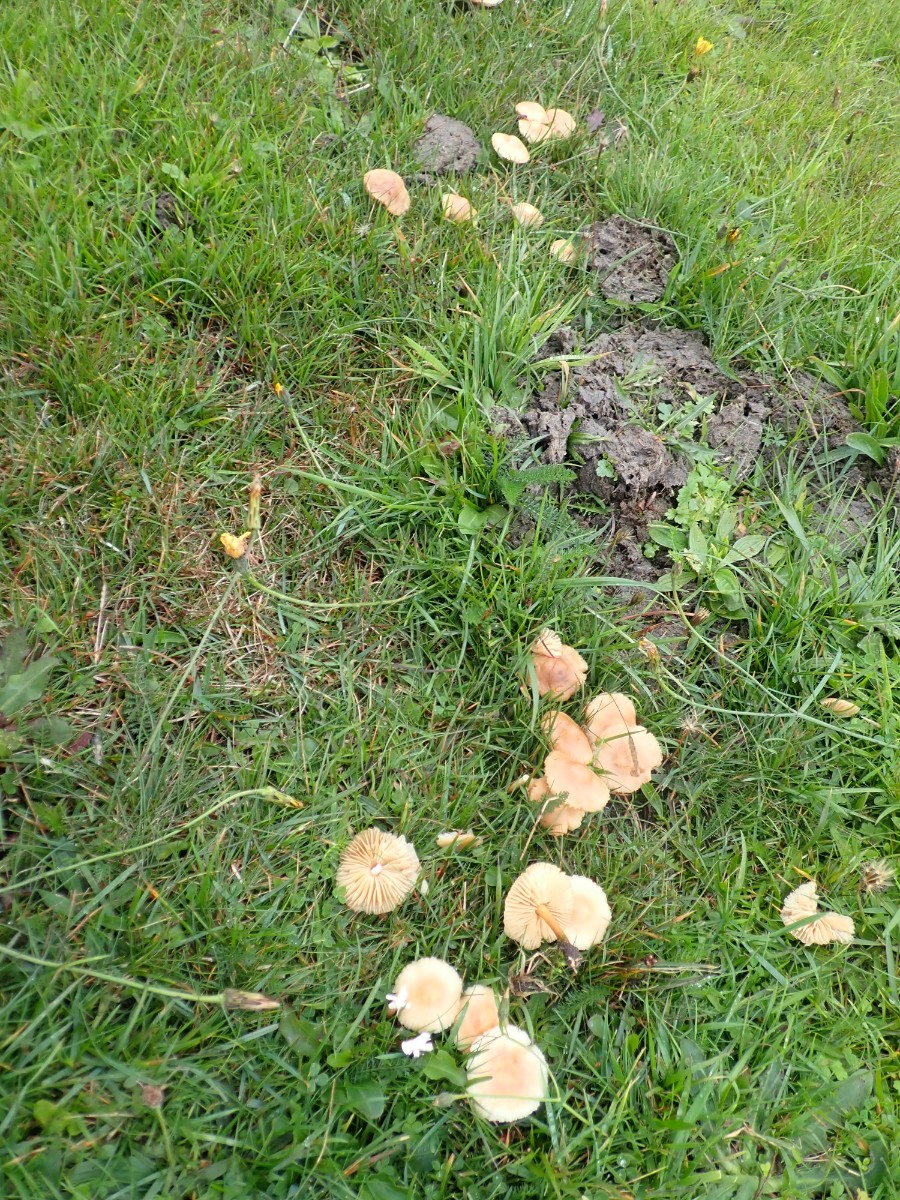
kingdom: Fungi
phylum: Basidiomycota
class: Agaricomycetes
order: Agaricales
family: Marasmiaceae
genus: Marasmius
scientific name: Marasmius oreades
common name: elledans-bruskhat
